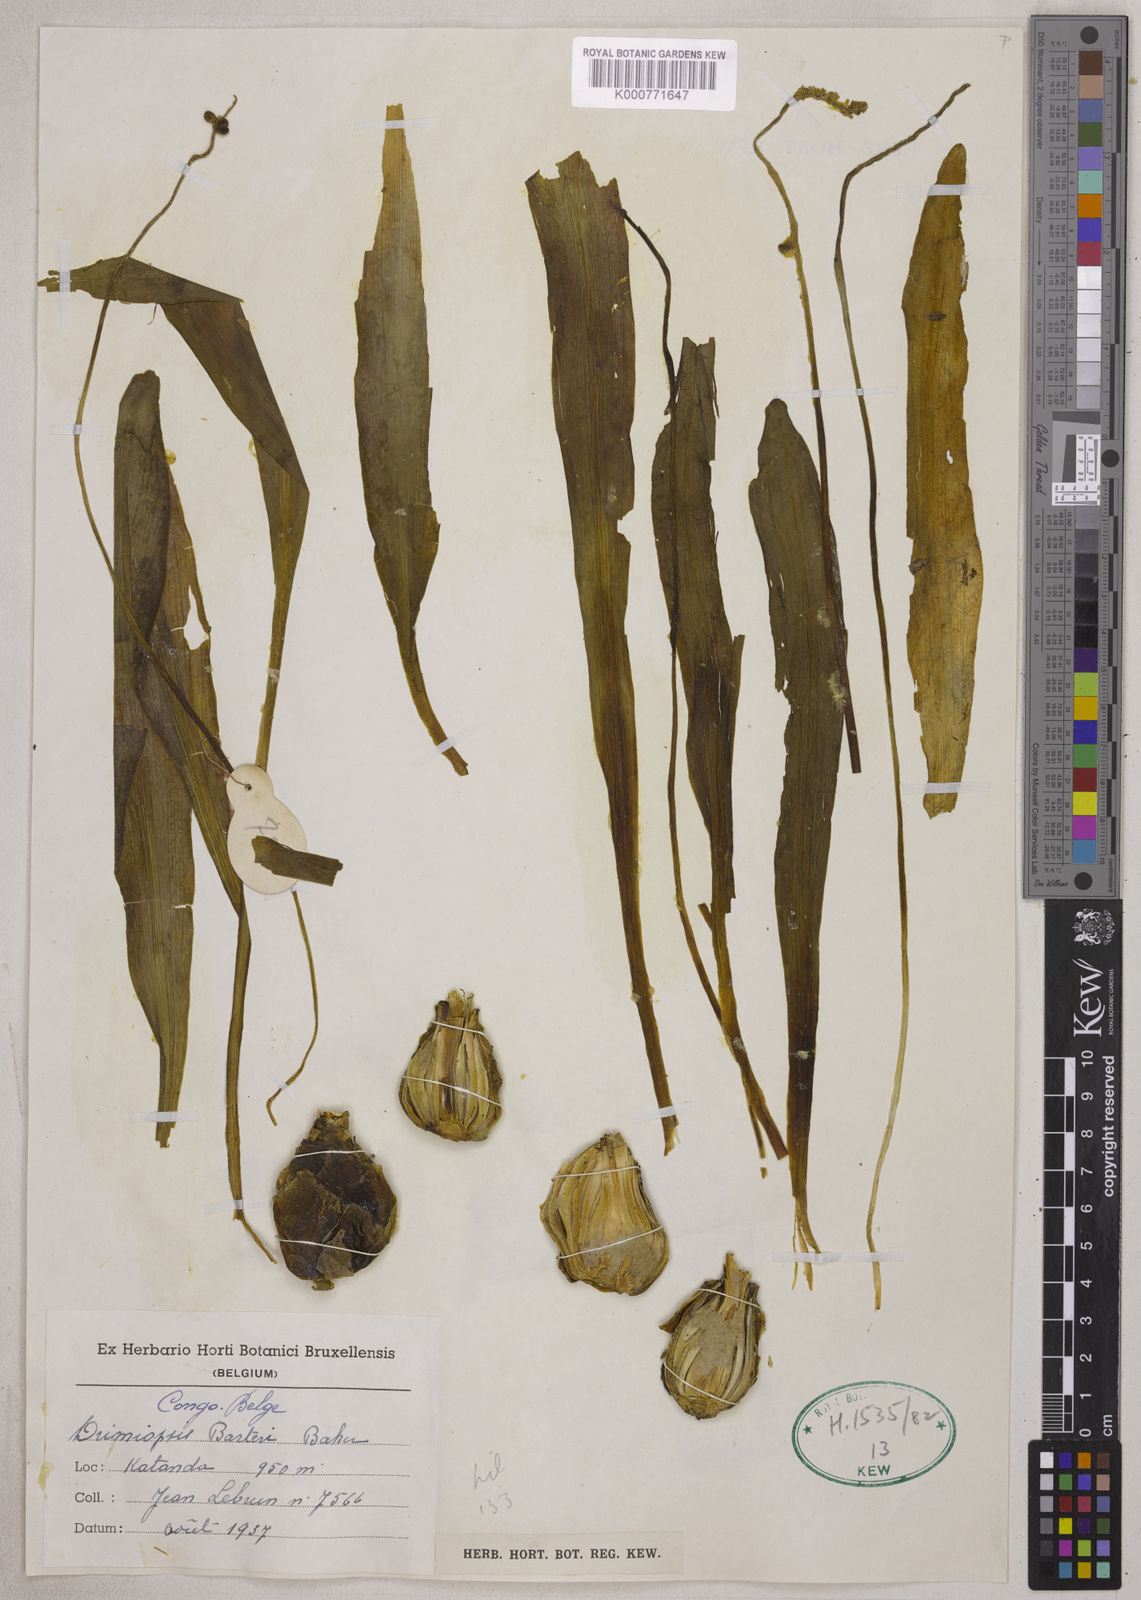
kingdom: Plantae
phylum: Tracheophyta
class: Liliopsida
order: Asparagales
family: Asparagaceae
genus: Drimiopsis
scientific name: Drimiopsis barteri
